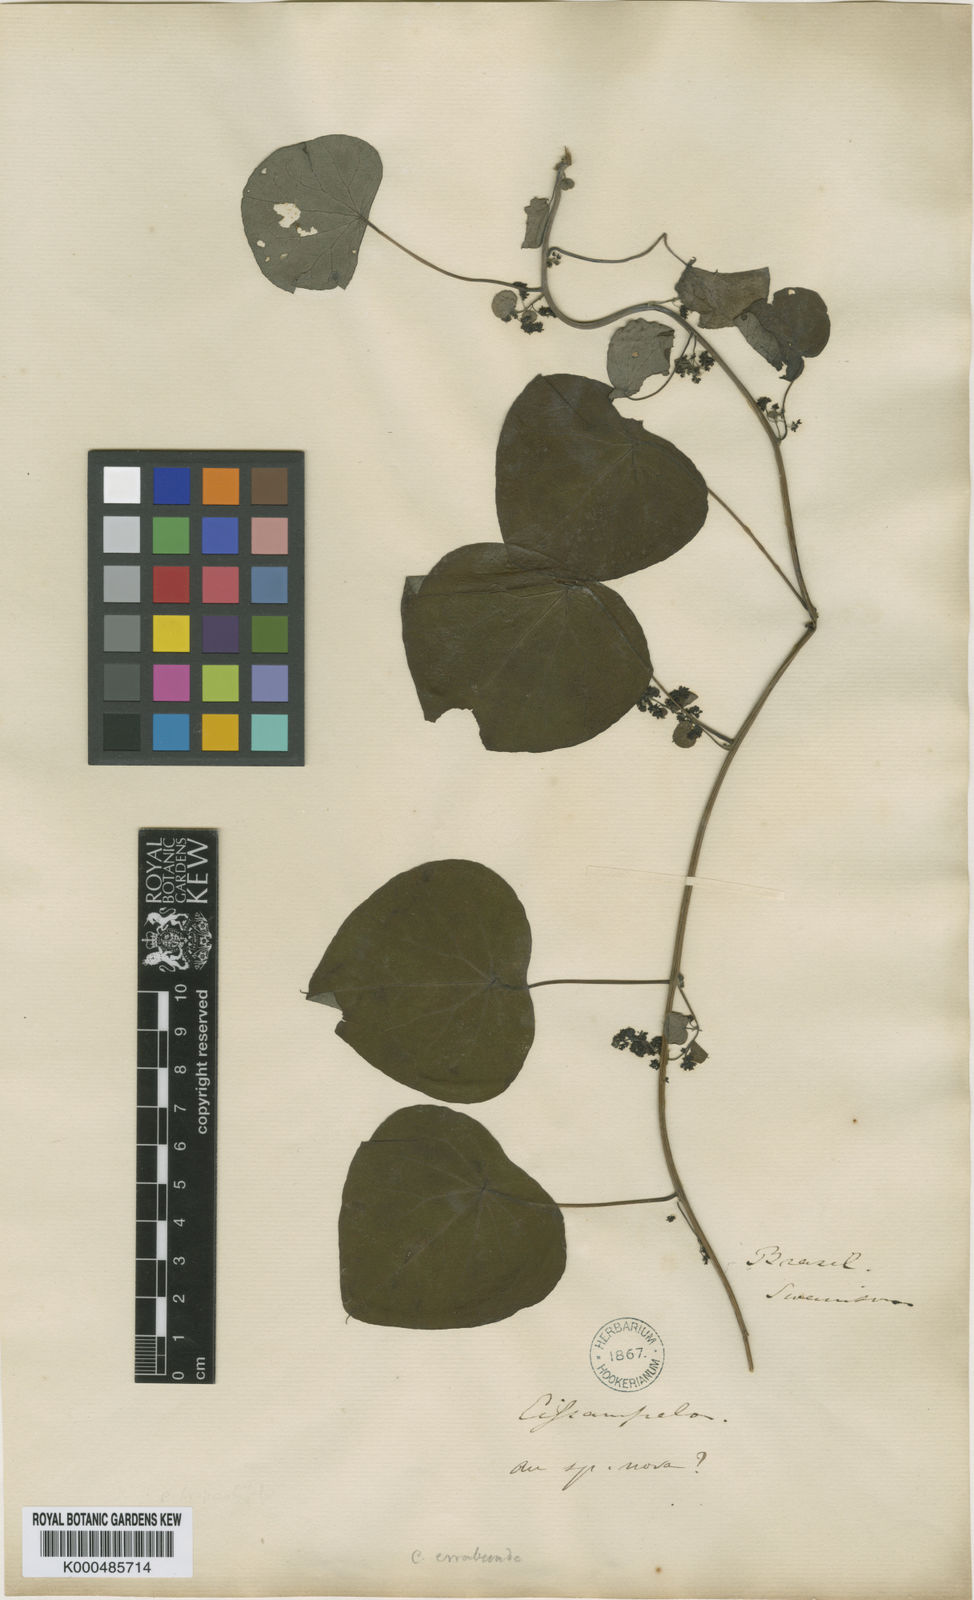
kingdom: Plantae
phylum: Tracheophyta
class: Magnoliopsida
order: Ranunculales
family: Menispermaceae
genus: Cissampelos
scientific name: Cissampelos glaberrima
